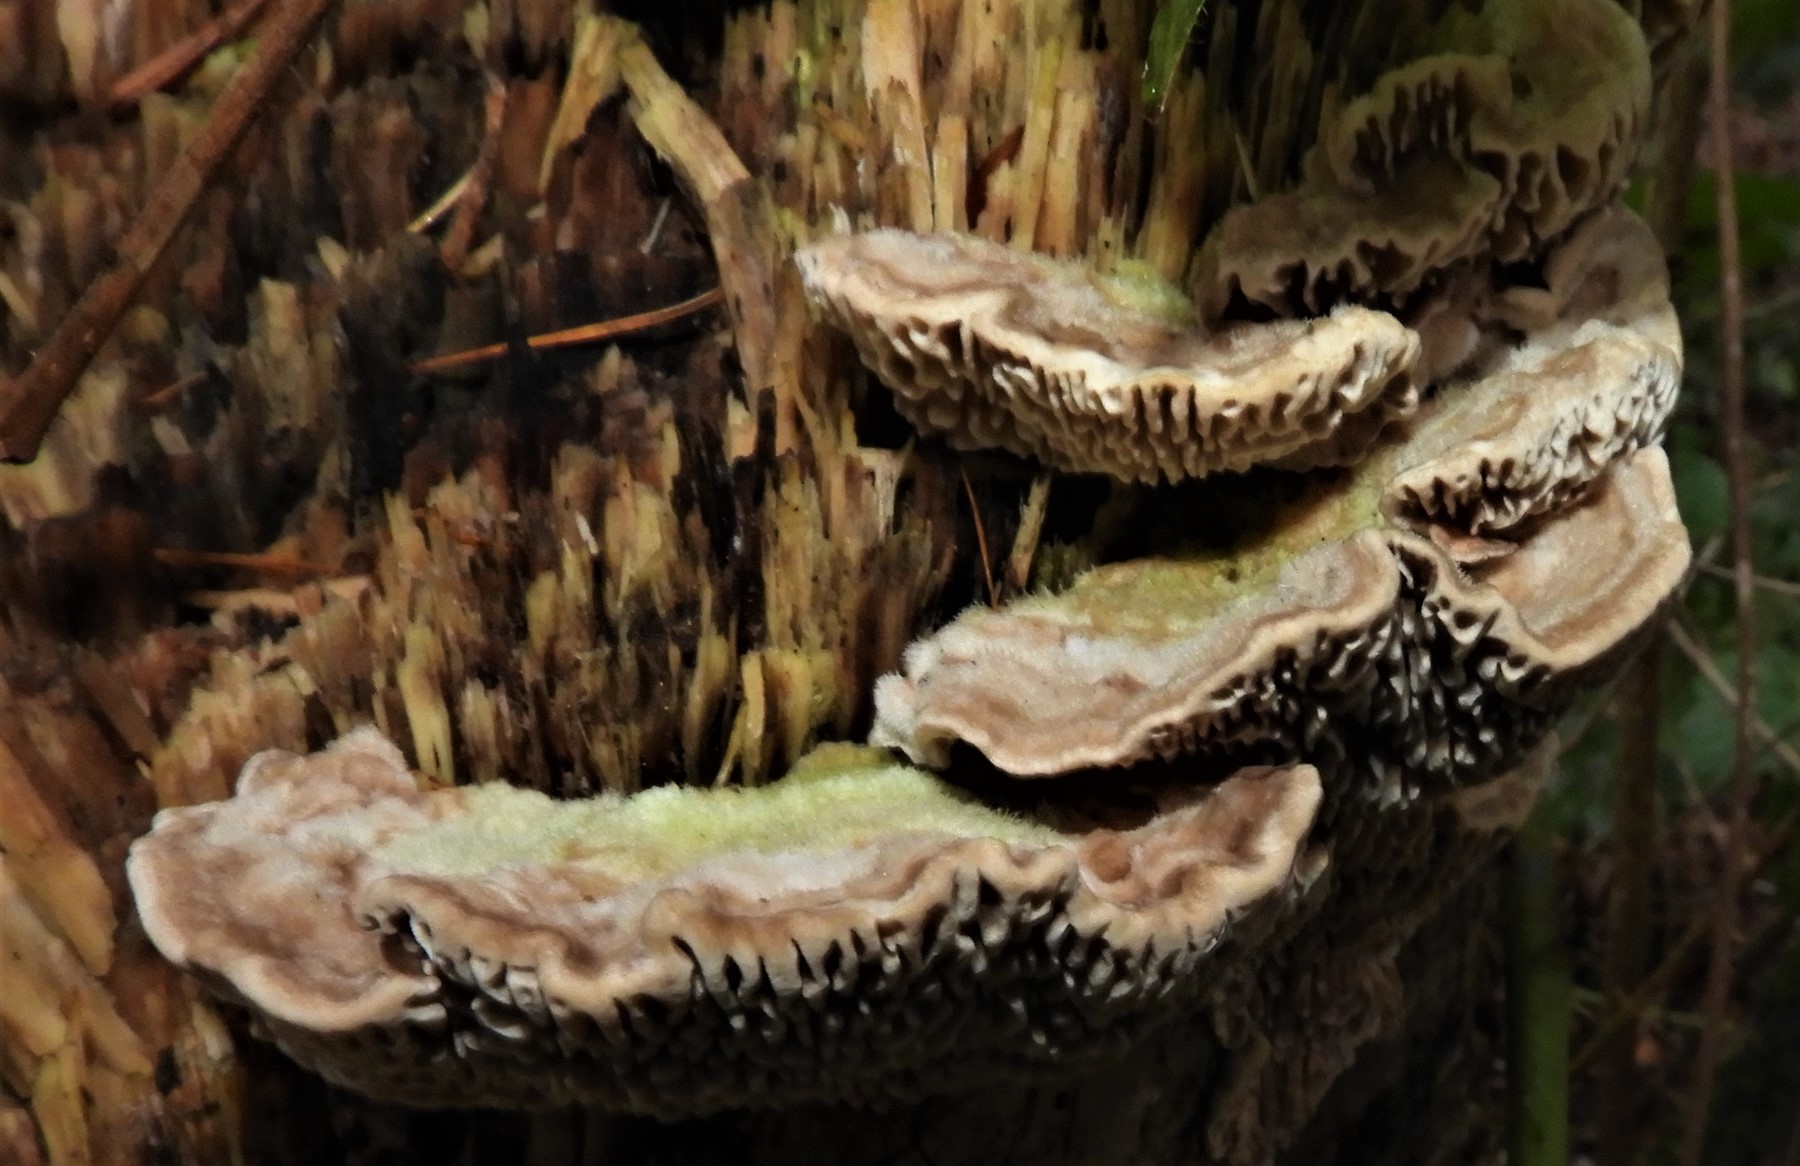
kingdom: Fungi
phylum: Basidiomycota
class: Agaricomycetes
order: Polyporales
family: Polyporaceae
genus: Lenzites
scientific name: Lenzites betulinus
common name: birke-læderporesvamp
